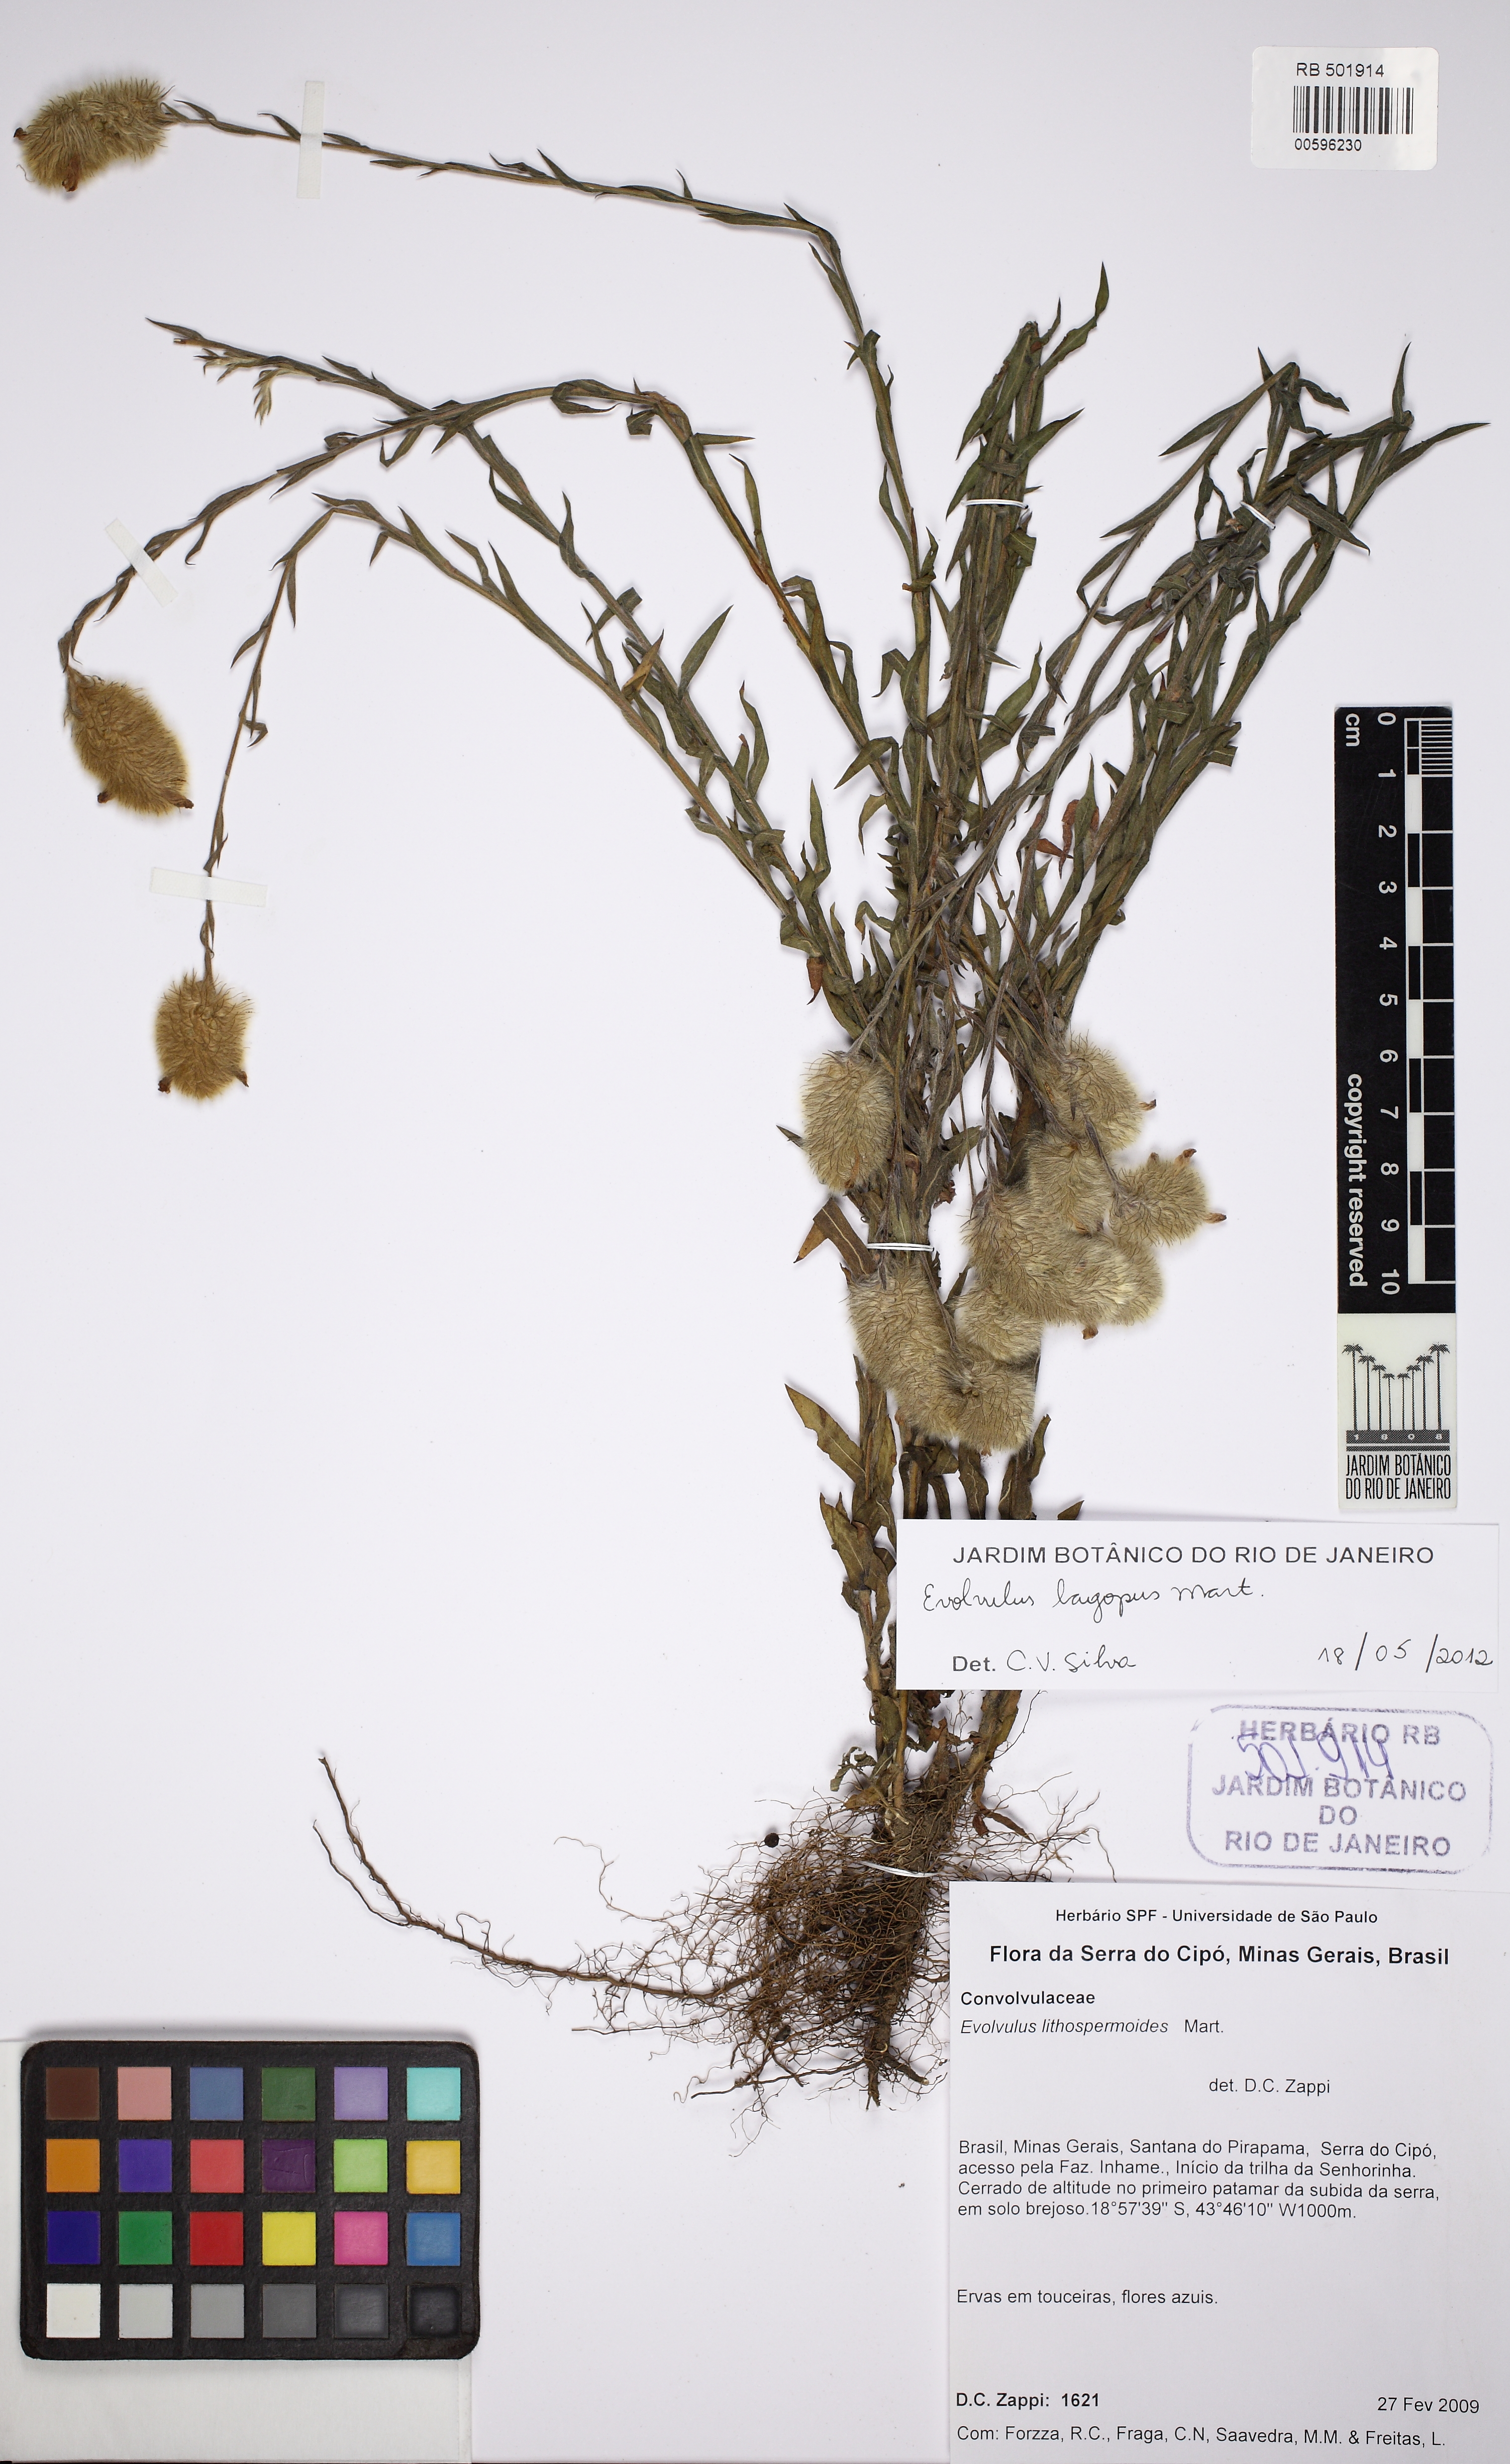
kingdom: Plantae
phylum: Tracheophyta
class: Magnoliopsida
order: Solanales
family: Convolvulaceae
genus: Evolvulus
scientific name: Evolvulus lagopus
